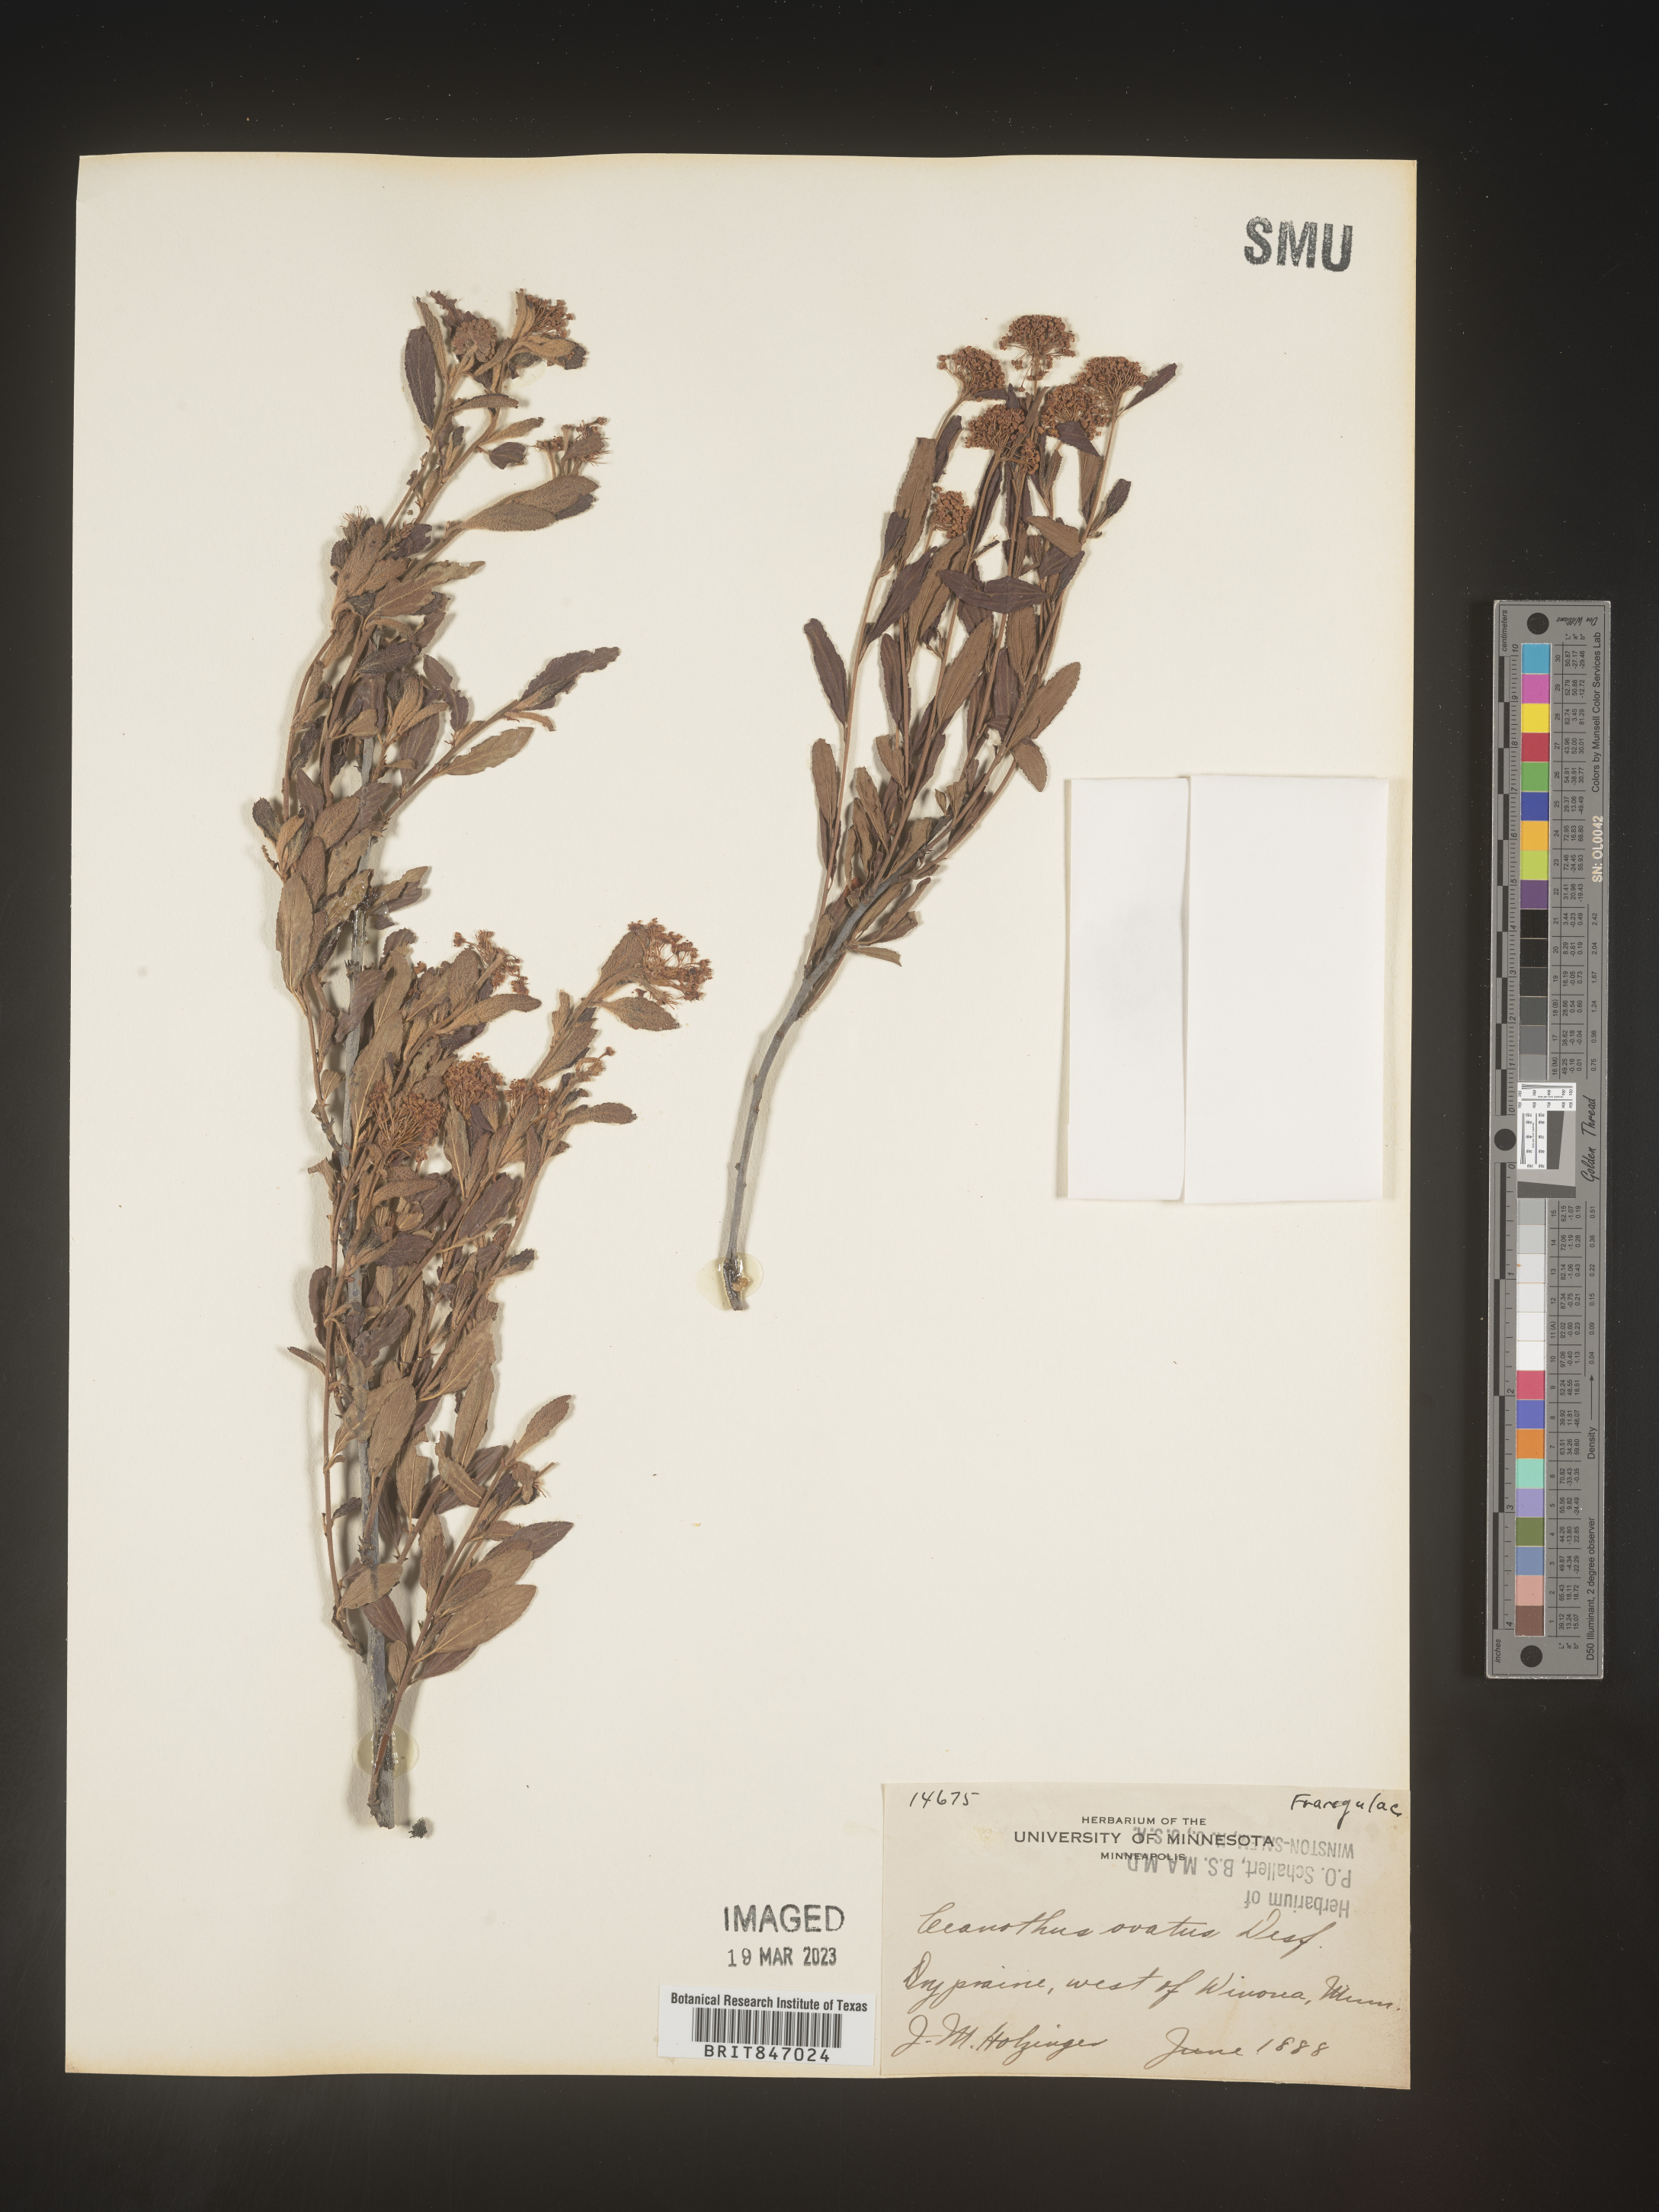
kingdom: Plantae
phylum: Tracheophyta
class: Magnoliopsida
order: Rosales
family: Rhamnaceae
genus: Ceanothus
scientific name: Ceanothus herbaceus
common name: Inland ceanothus
